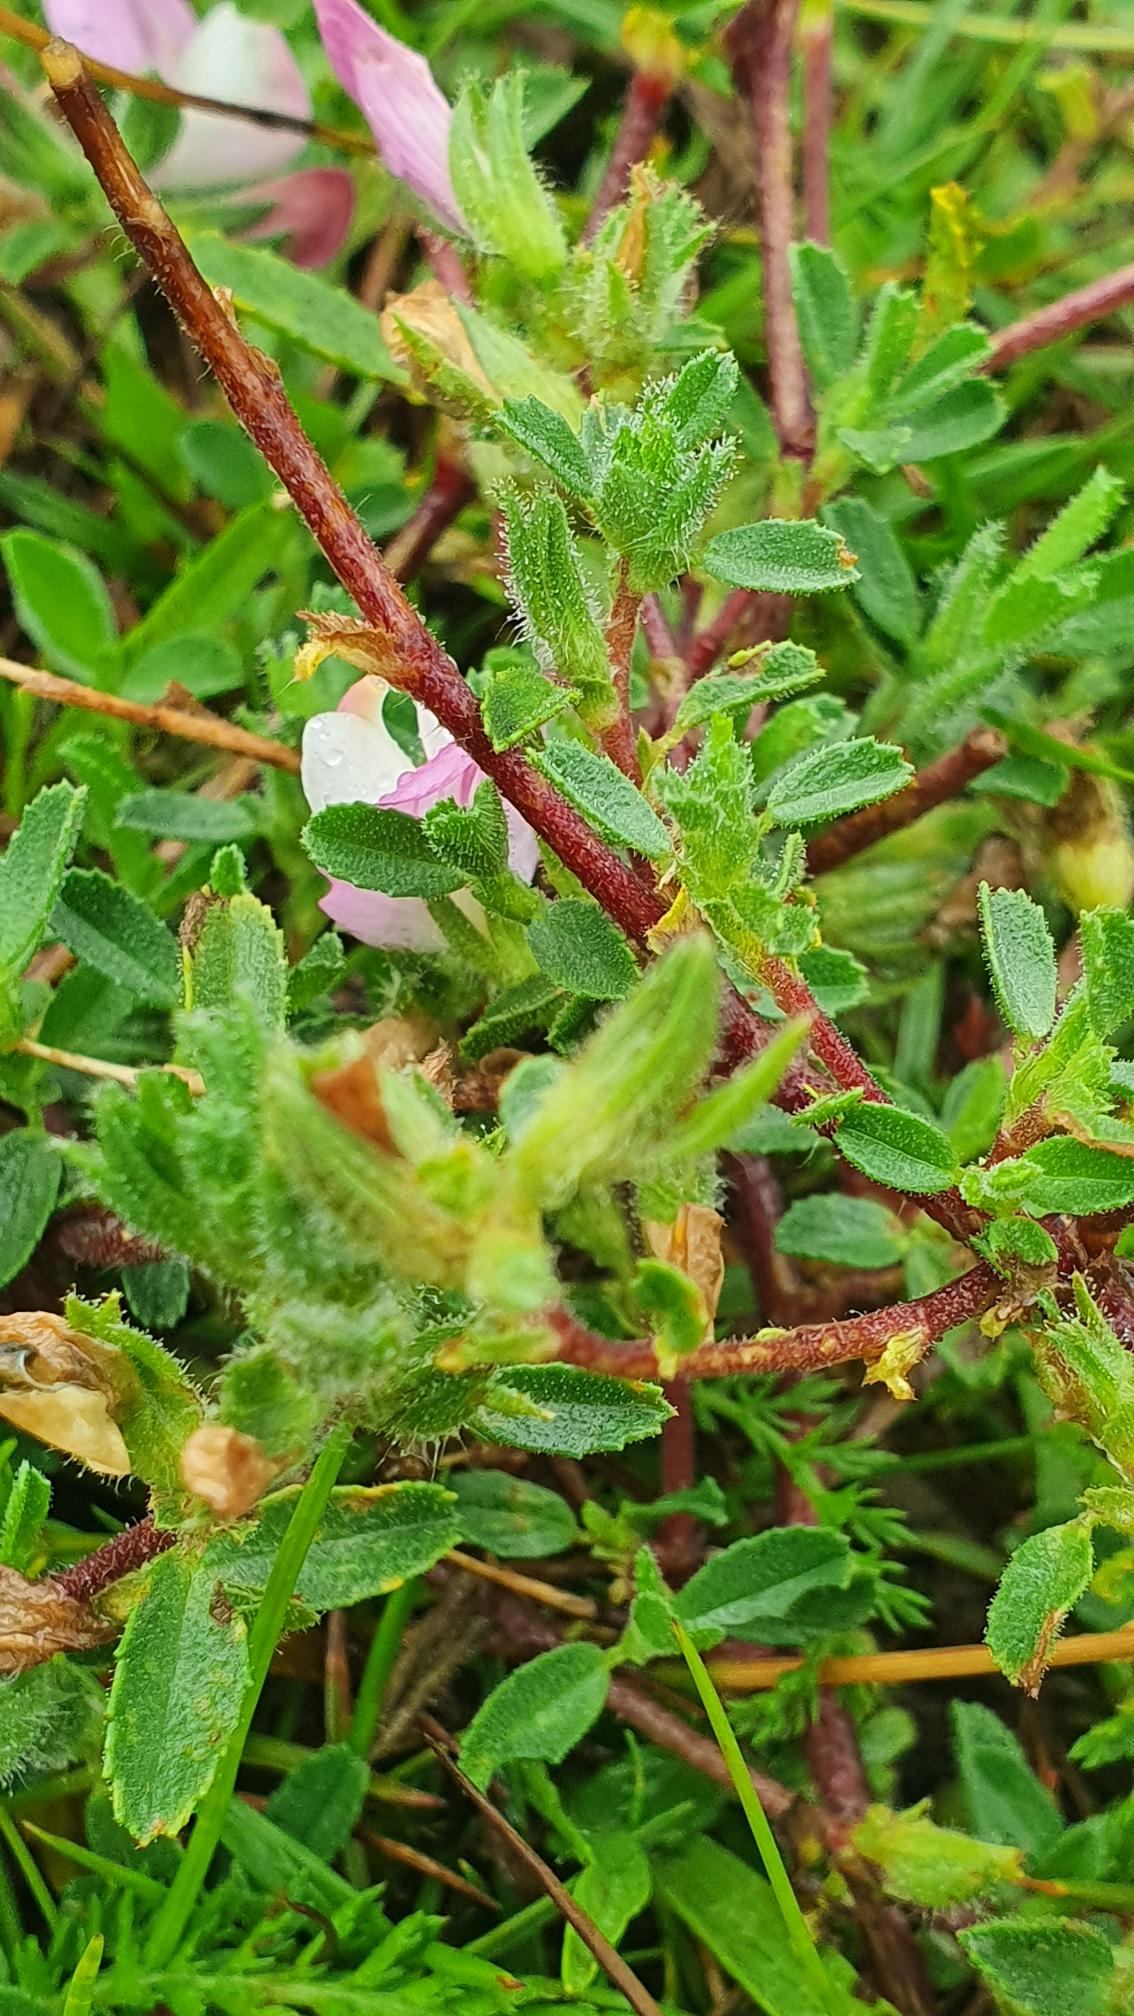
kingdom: Plantae
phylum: Tracheophyta
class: Magnoliopsida
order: Fabales
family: Fabaceae
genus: Ononis
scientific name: Ononis spinosa
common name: Mark-krageklo
